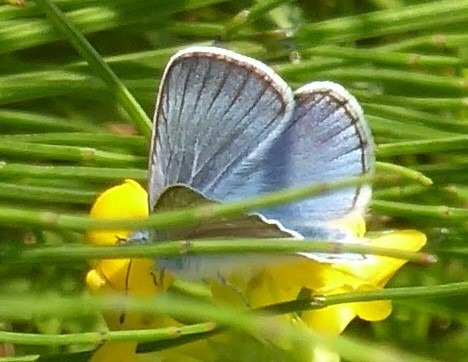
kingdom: Animalia
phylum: Arthropoda
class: Insecta
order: Lepidoptera
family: Lycaenidae
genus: Plebejus
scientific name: Plebejus amanda
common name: Isblåfugl
